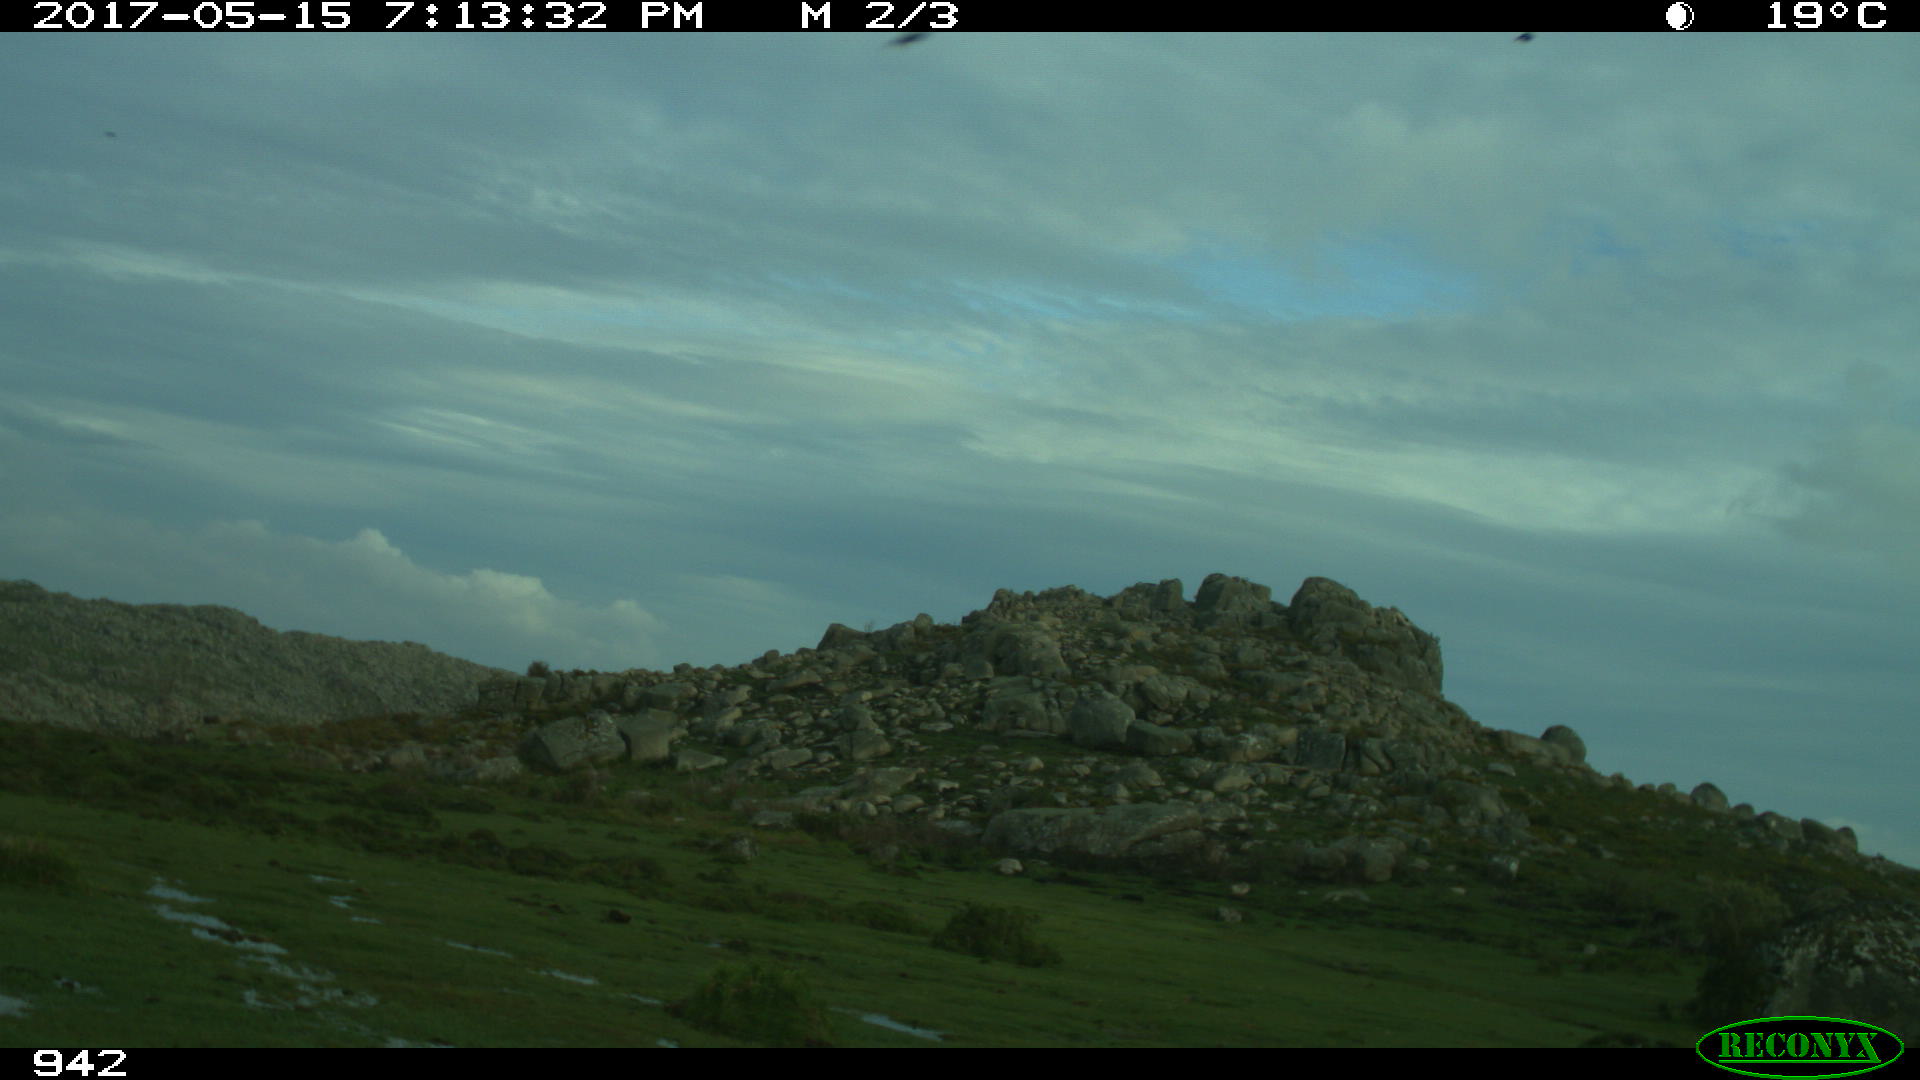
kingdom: Animalia
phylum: Chordata
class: Mammalia
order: Artiodactyla
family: Bovidae
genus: Bos
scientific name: Bos taurus
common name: Domesticated cattle
